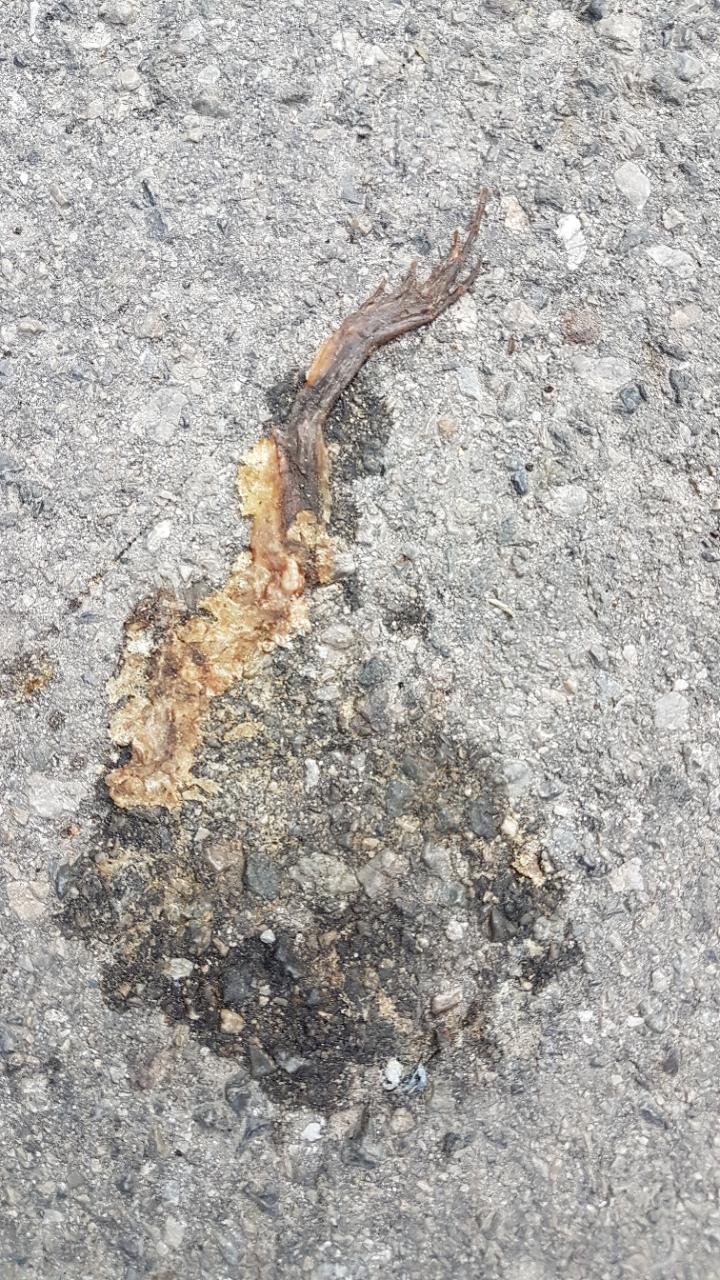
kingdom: Animalia
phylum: Chordata
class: Amphibia
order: Anura
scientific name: Anura
